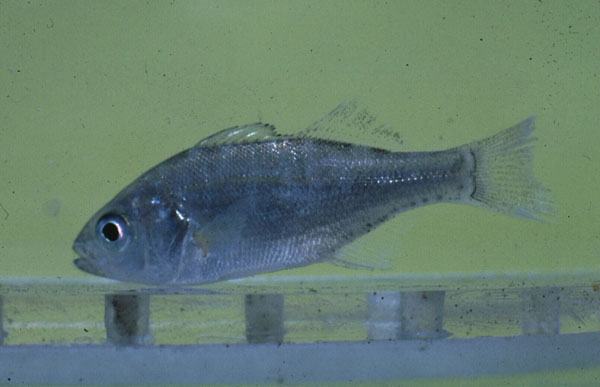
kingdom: Animalia
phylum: Chordata
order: Perciformes
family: Haemulidae
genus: Pomadasys
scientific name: Pomadasys olivaceus
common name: Olive grunt
